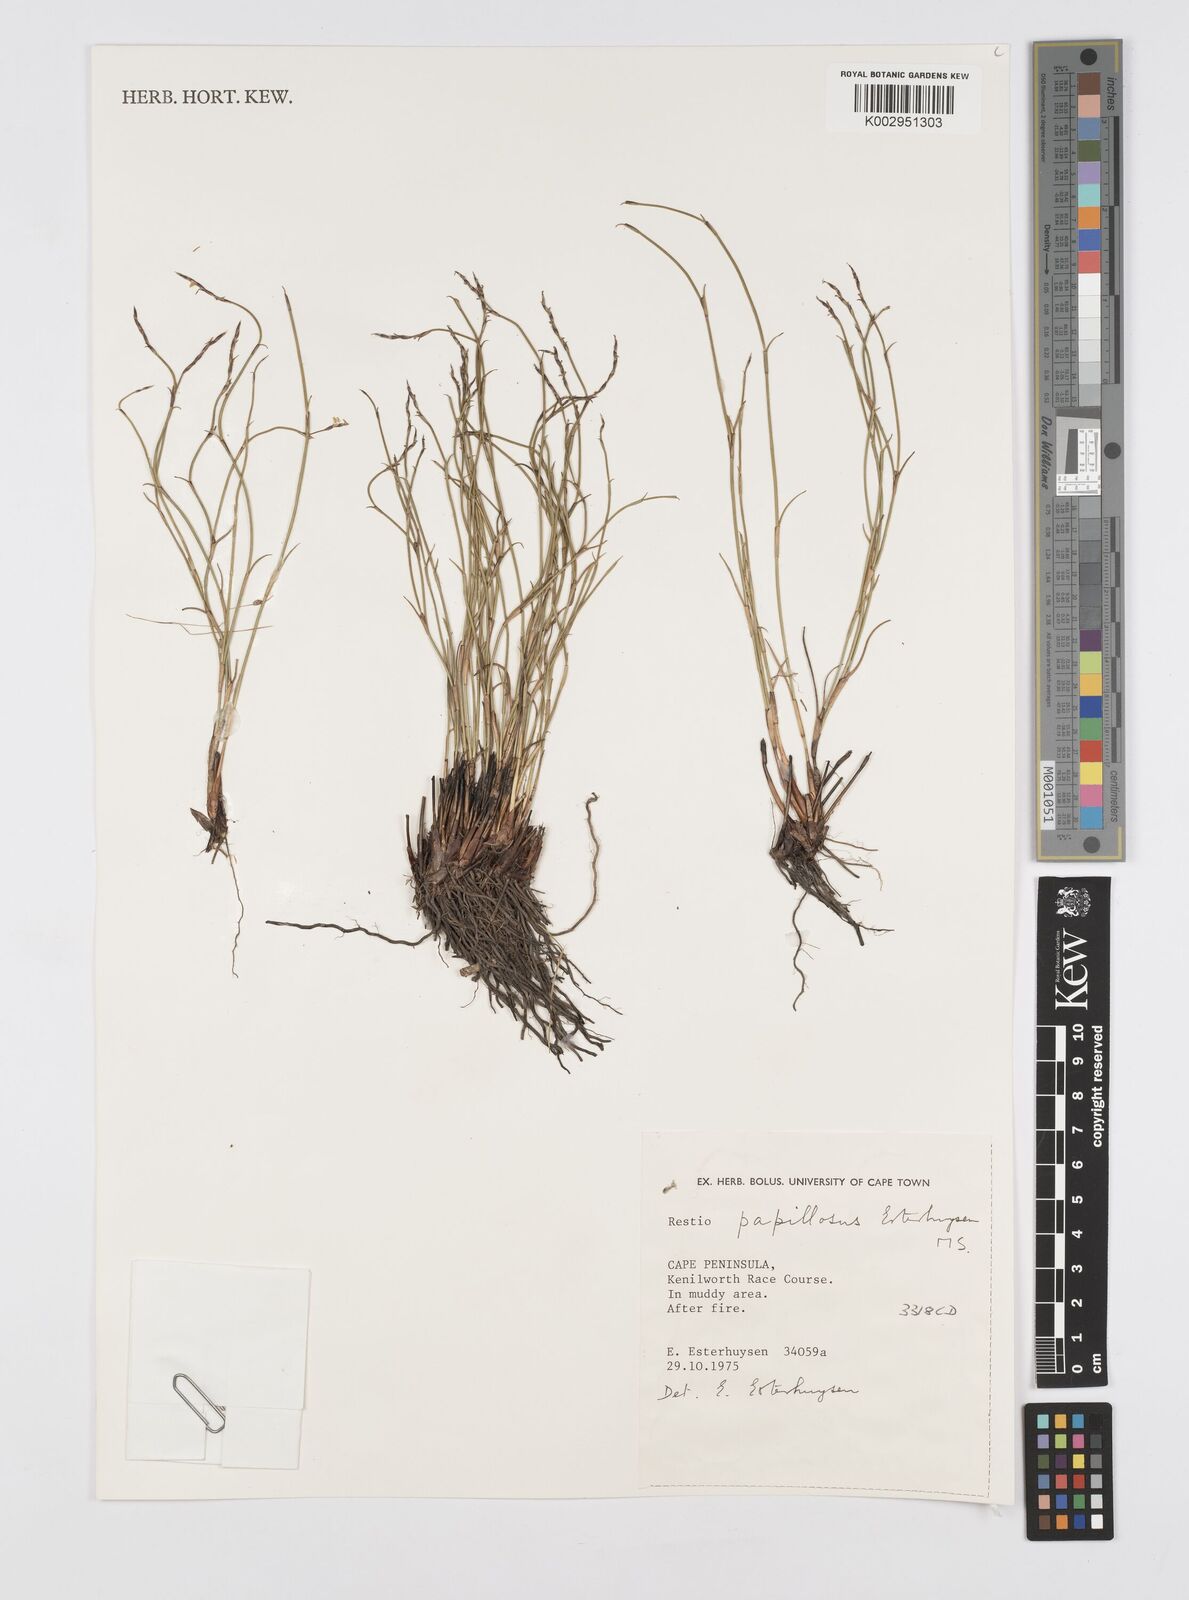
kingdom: Plantae
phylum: Tracheophyta
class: Liliopsida
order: Poales
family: Restionaceae
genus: Restio
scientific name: Restio papillosus
